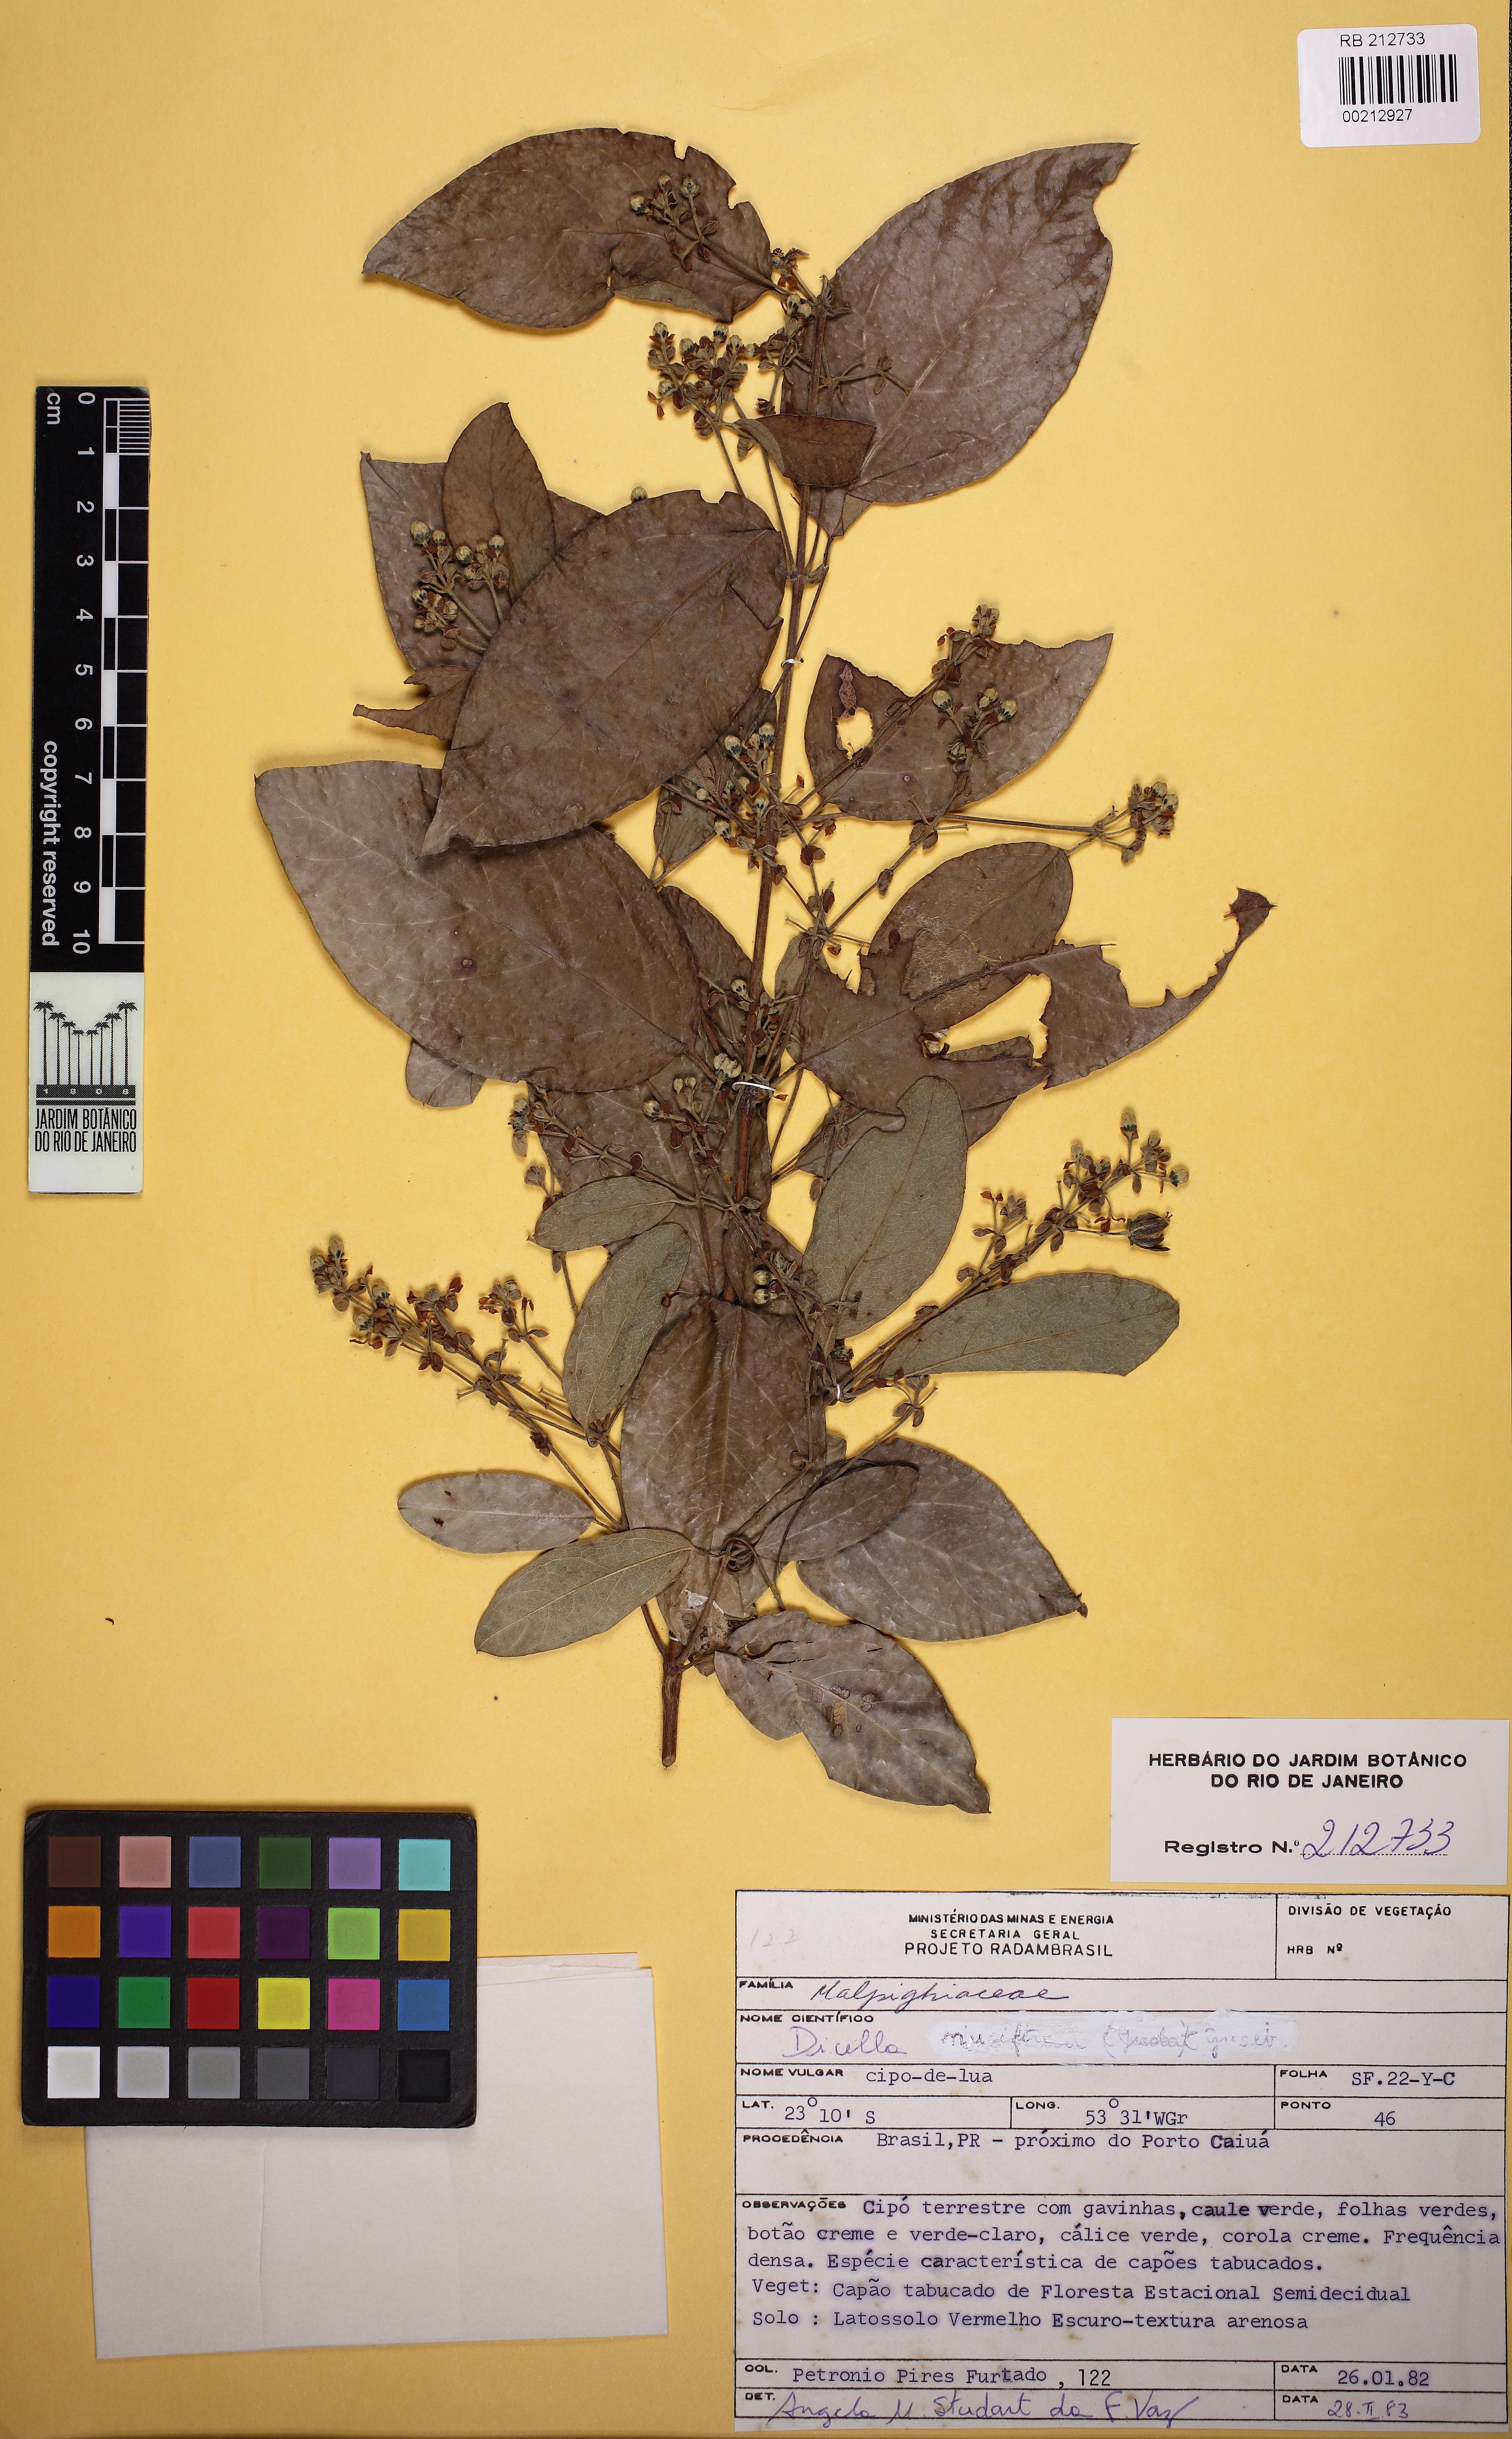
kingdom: Plantae
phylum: Tracheophyta
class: Magnoliopsida
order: Malpighiales
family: Malpighiaceae
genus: Dicella
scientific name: Dicella nucifera
